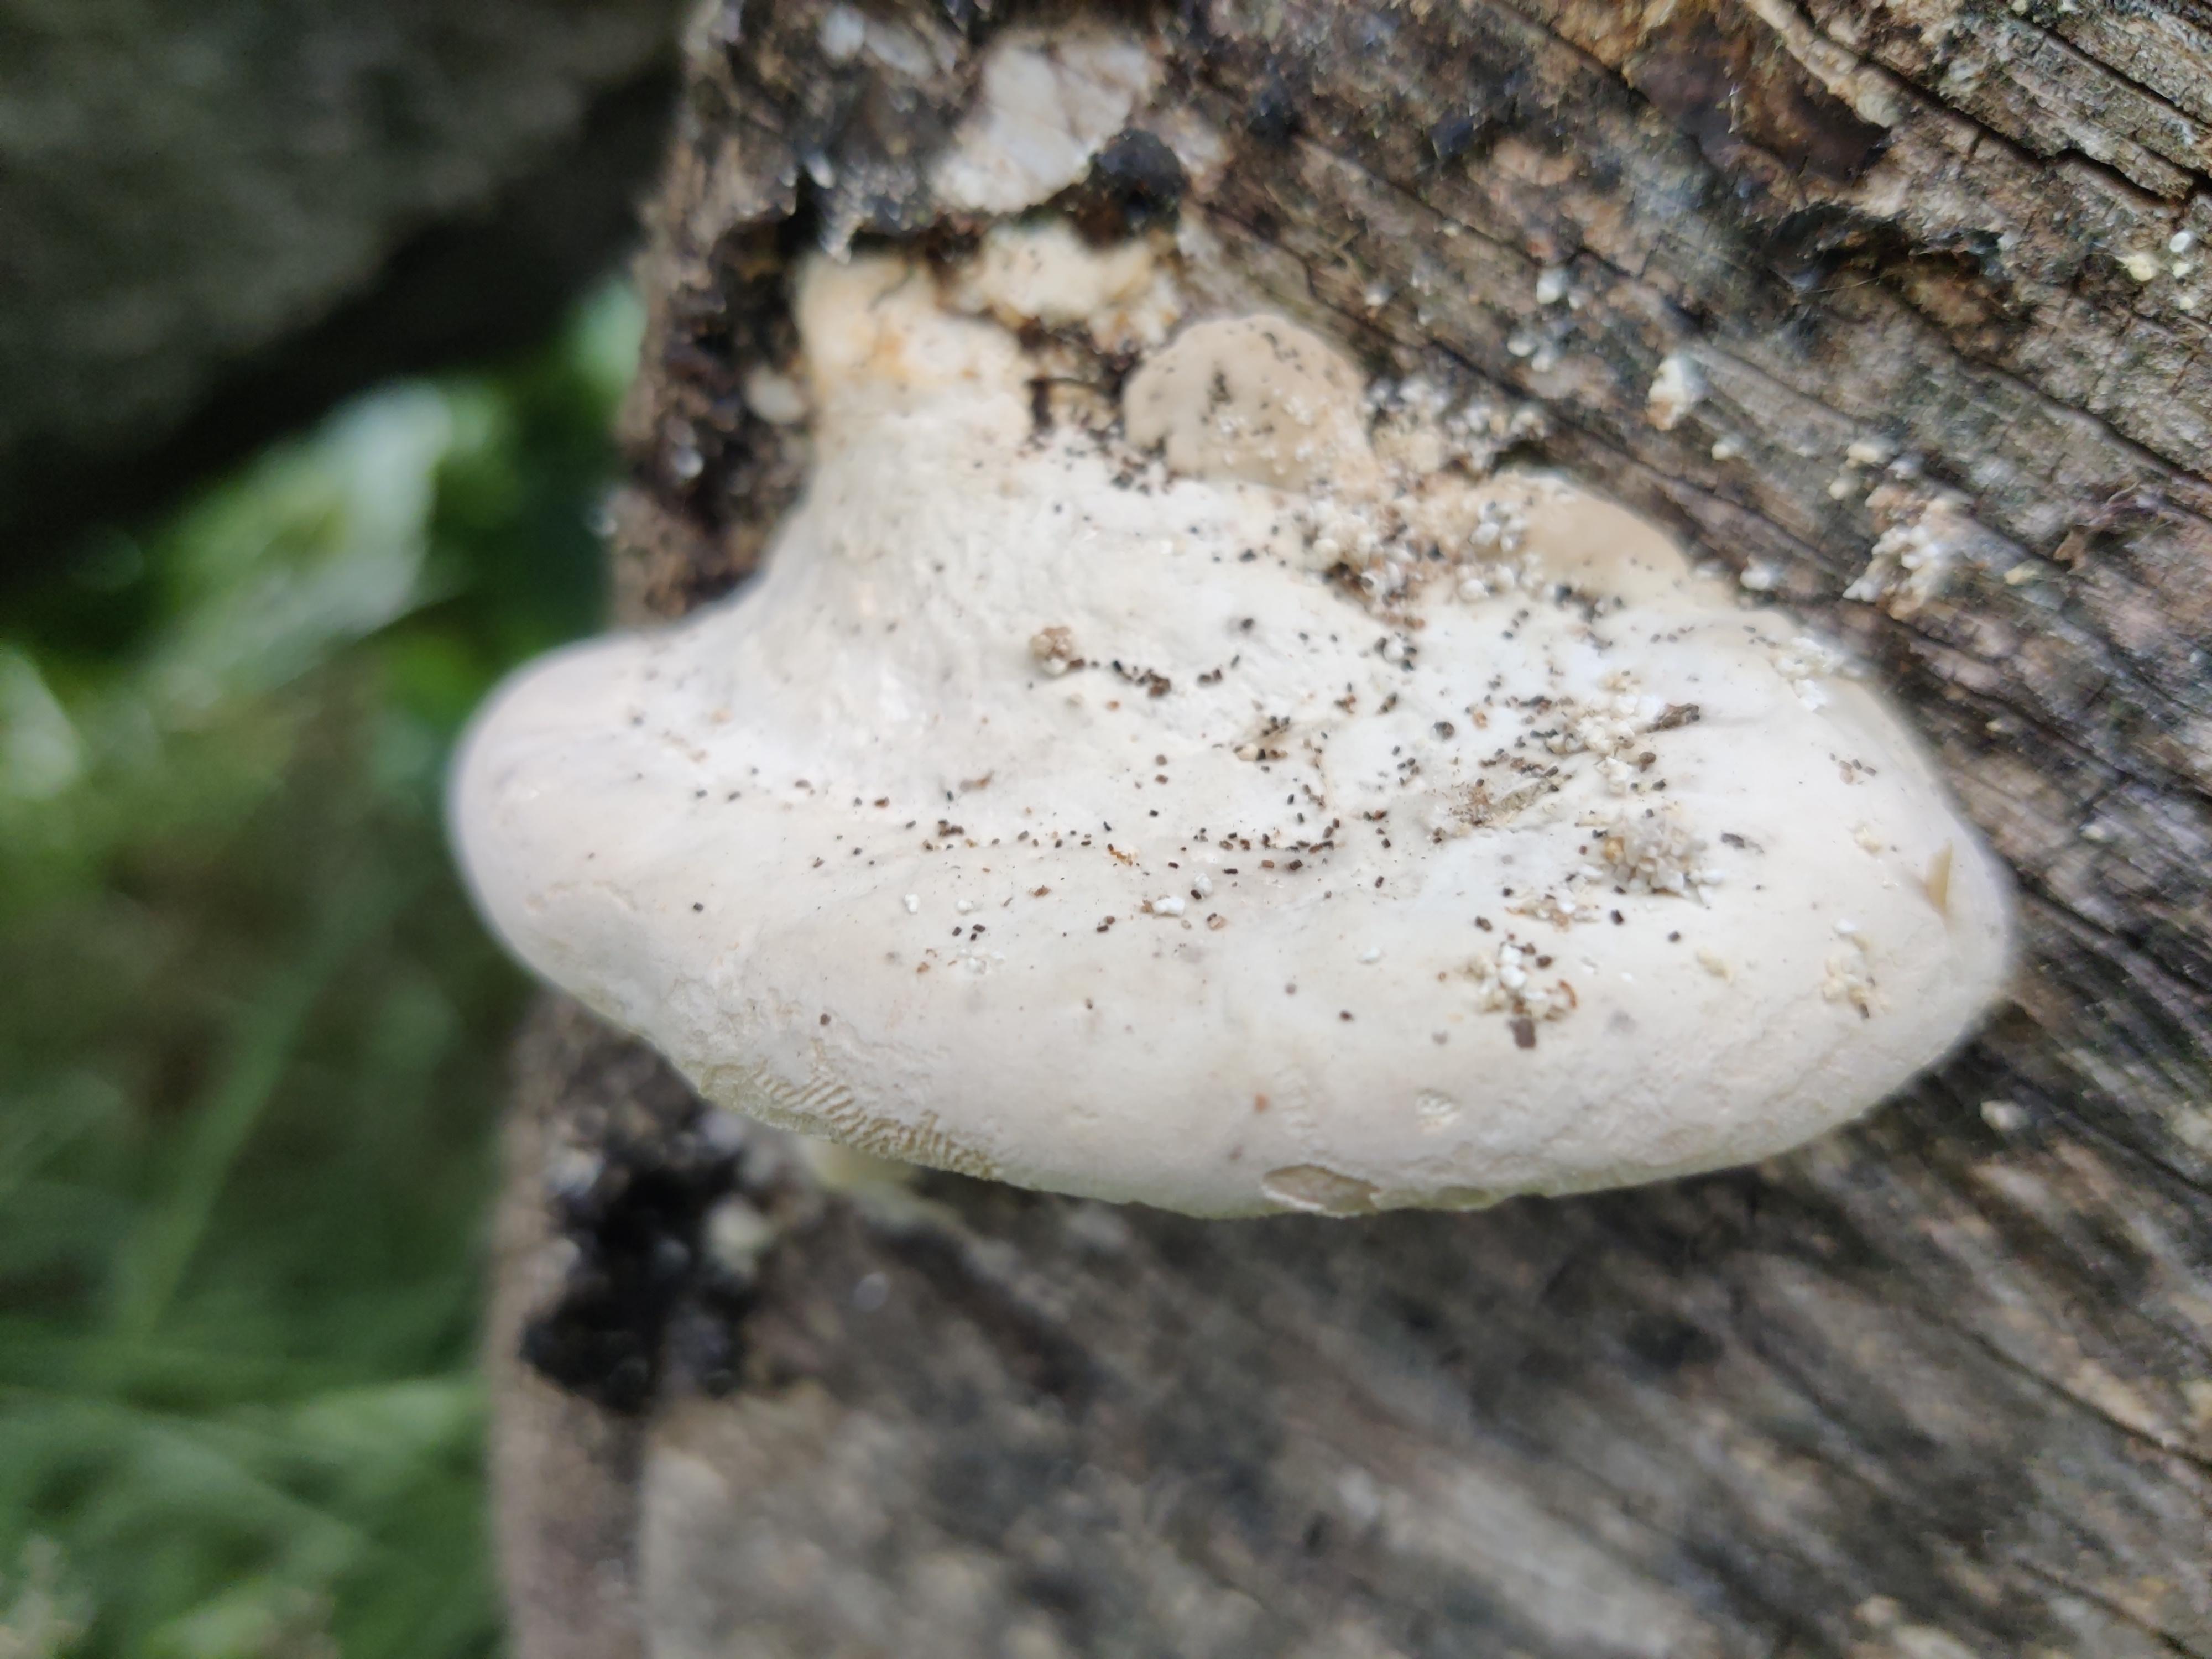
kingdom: Fungi
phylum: Basidiomycota
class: Agaricomycetes
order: Polyporales
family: Polyporaceae
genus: Trametes
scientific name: Trametes gibbosa
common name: puklet læderporesvamp
